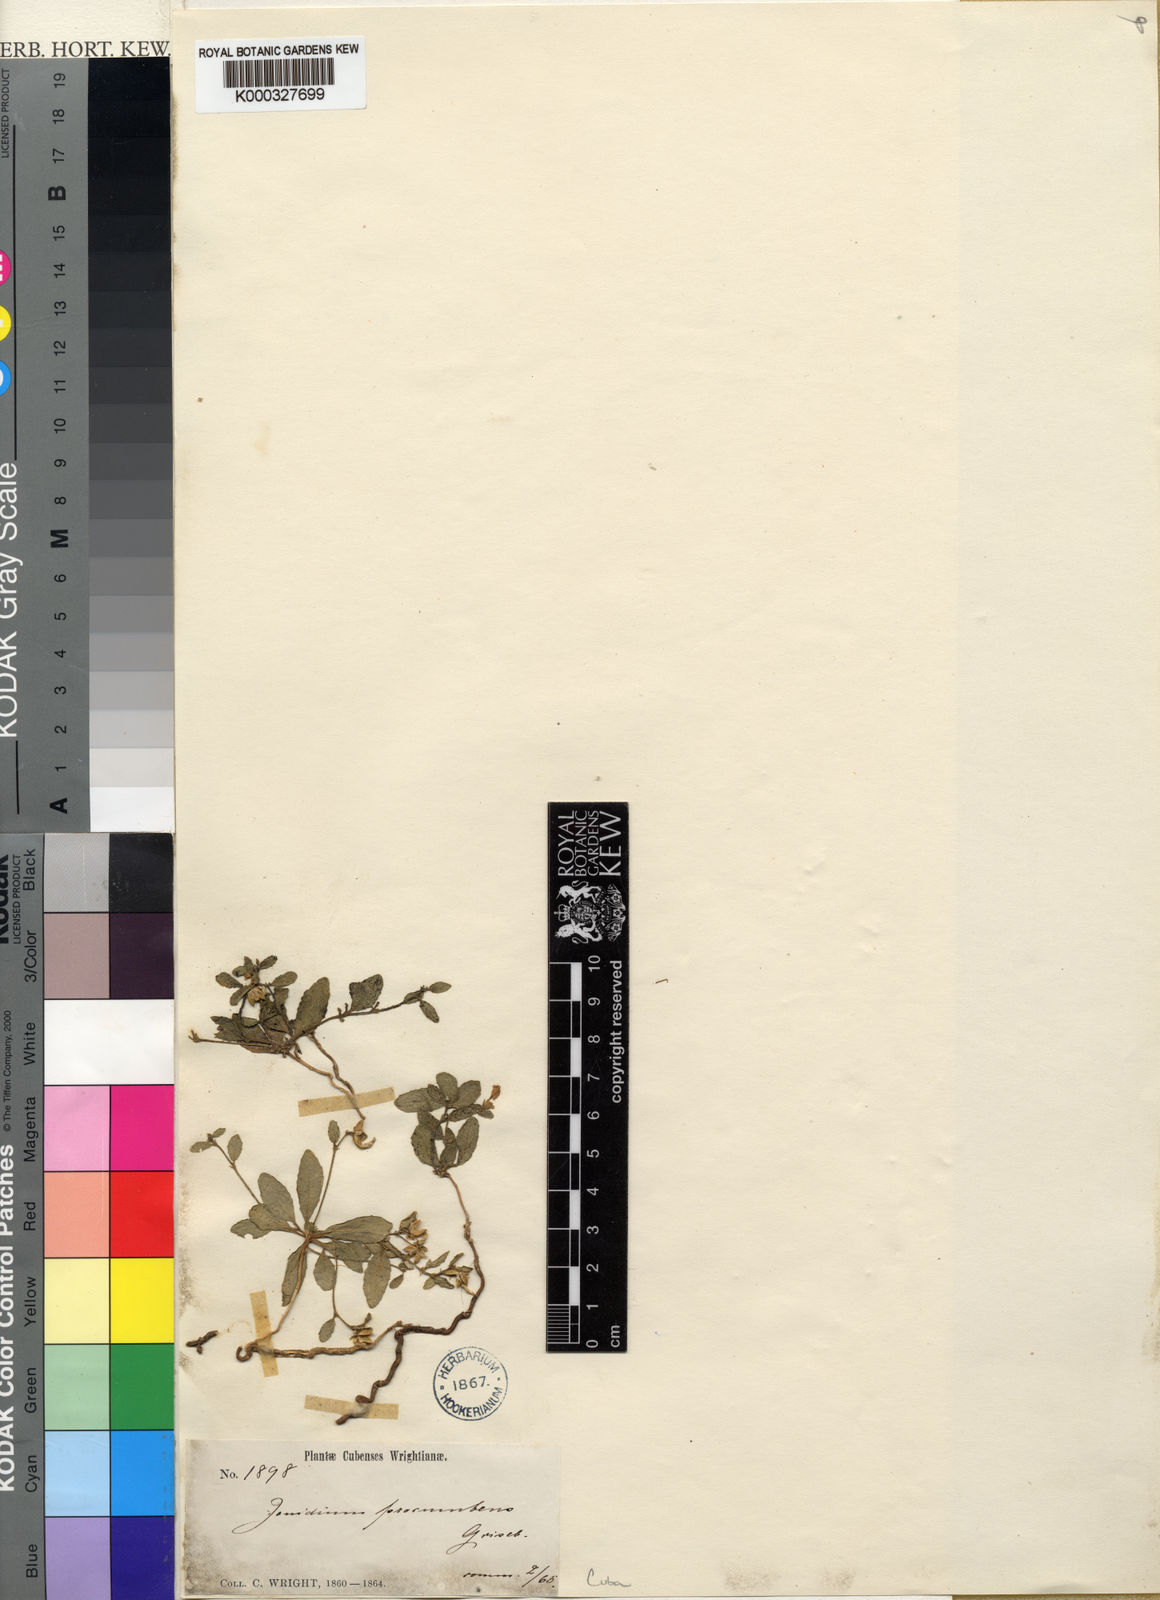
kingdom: Plantae
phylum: Tracheophyta
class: Magnoliopsida
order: Malpighiales
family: Violaceae
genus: Hybanthus
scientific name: Hybanthus
